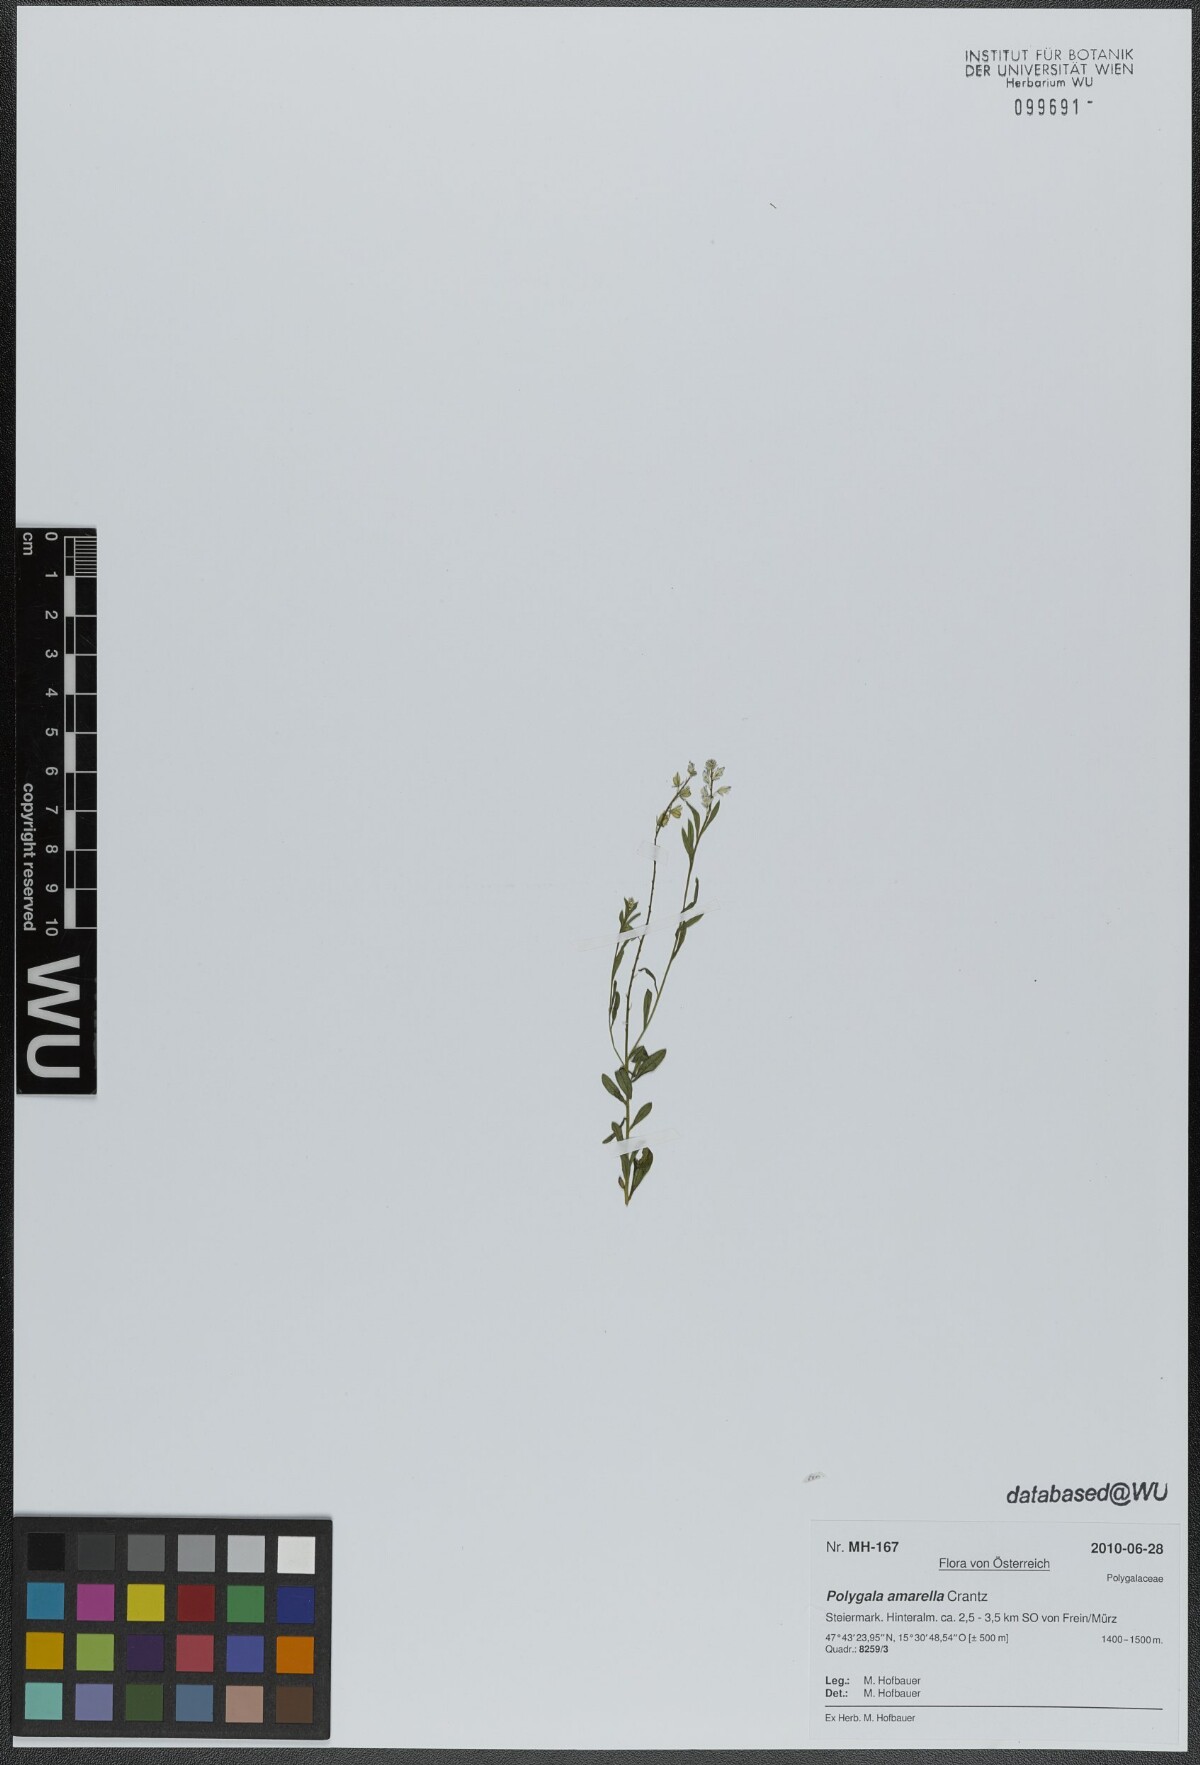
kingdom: Plantae
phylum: Tracheophyta
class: Magnoliopsida
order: Fabales
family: Polygalaceae
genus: Polygala
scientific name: Polygala amarella
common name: Dwarf milkwort
